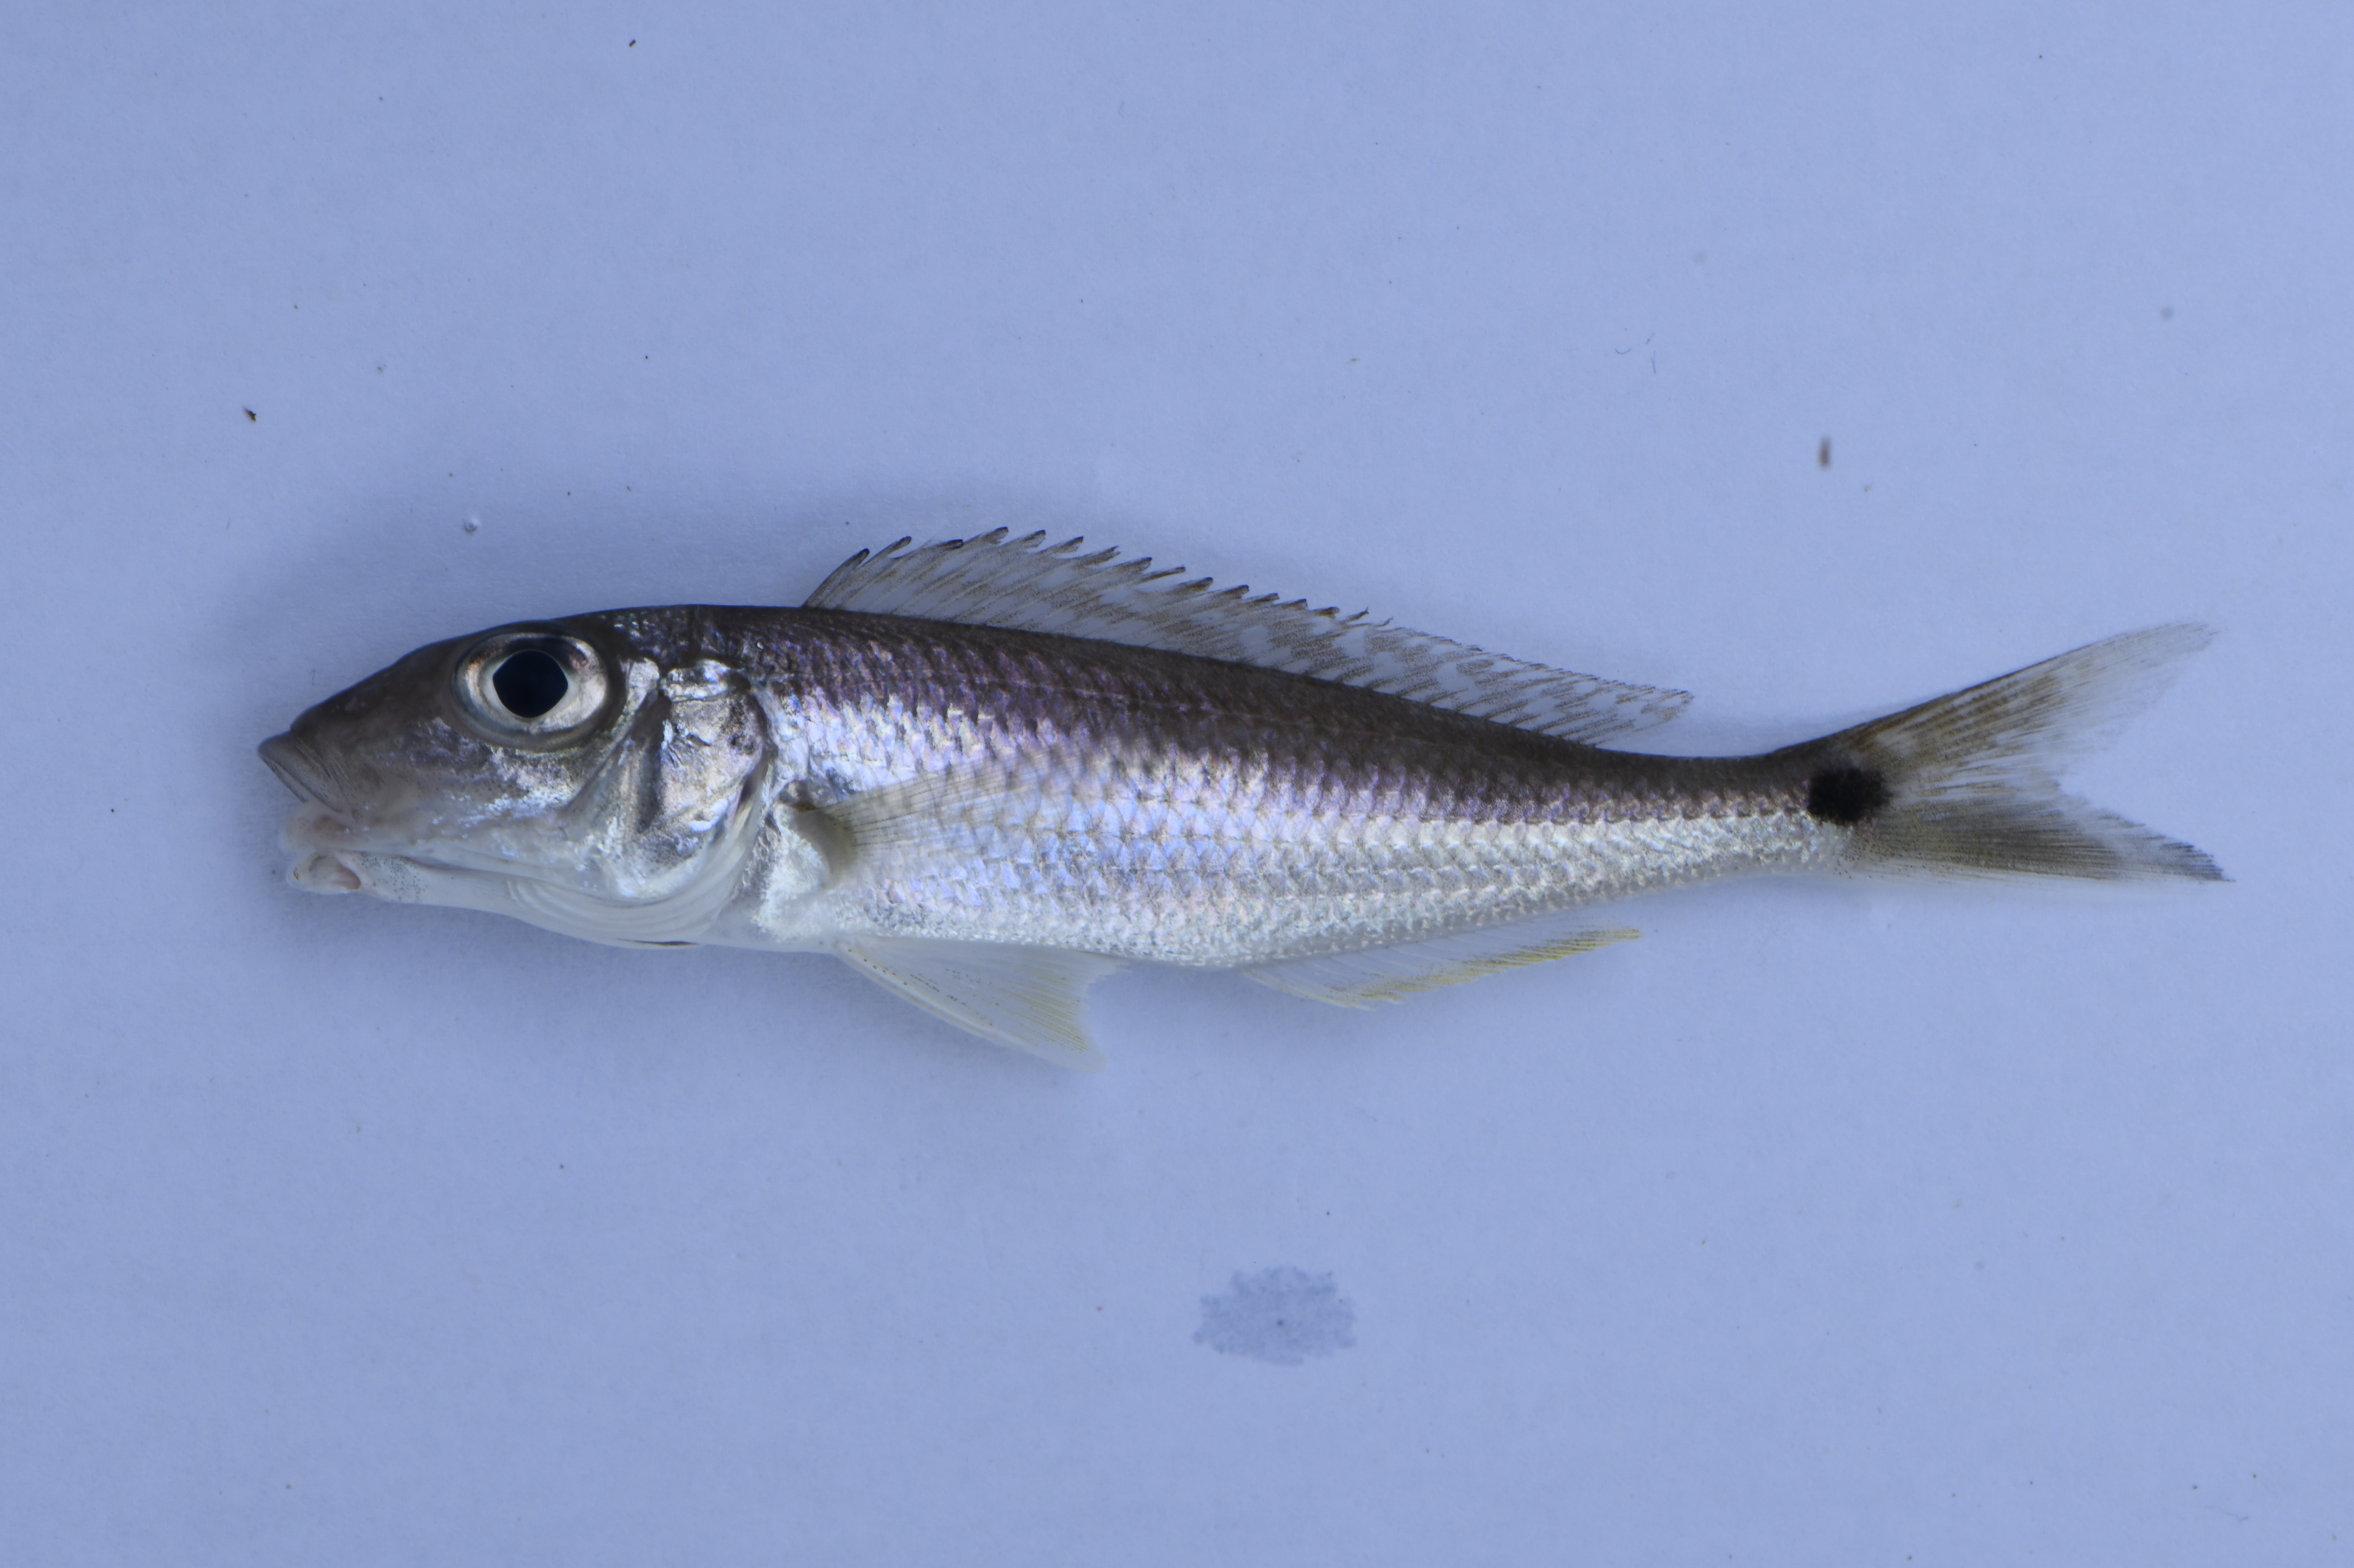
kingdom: Animalia
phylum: Chordata
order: Perciformes
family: Cichlidae
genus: Grammatotria
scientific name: Grammatotria lemairii
